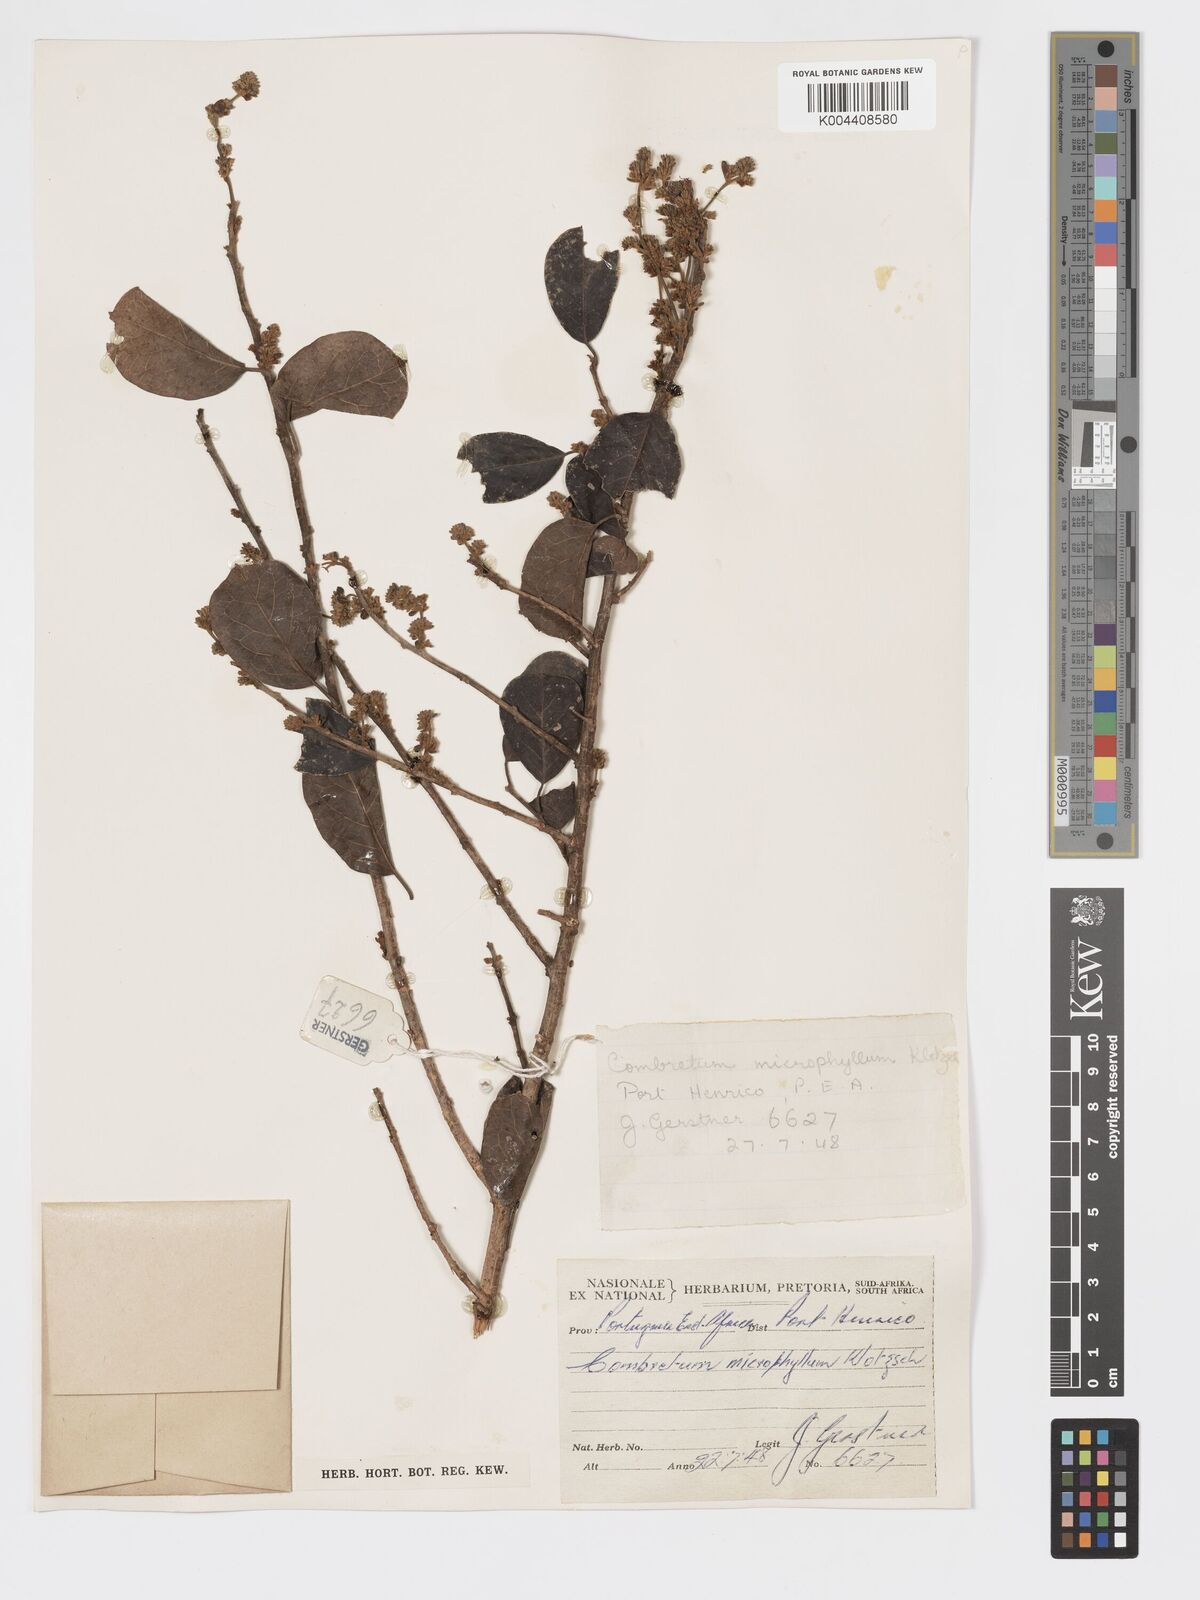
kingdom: Plantae
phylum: Tracheophyta
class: Magnoliopsida
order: Myrtales
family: Combretaceae
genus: Combretum
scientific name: Combretum microphyllum
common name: Burningbush
